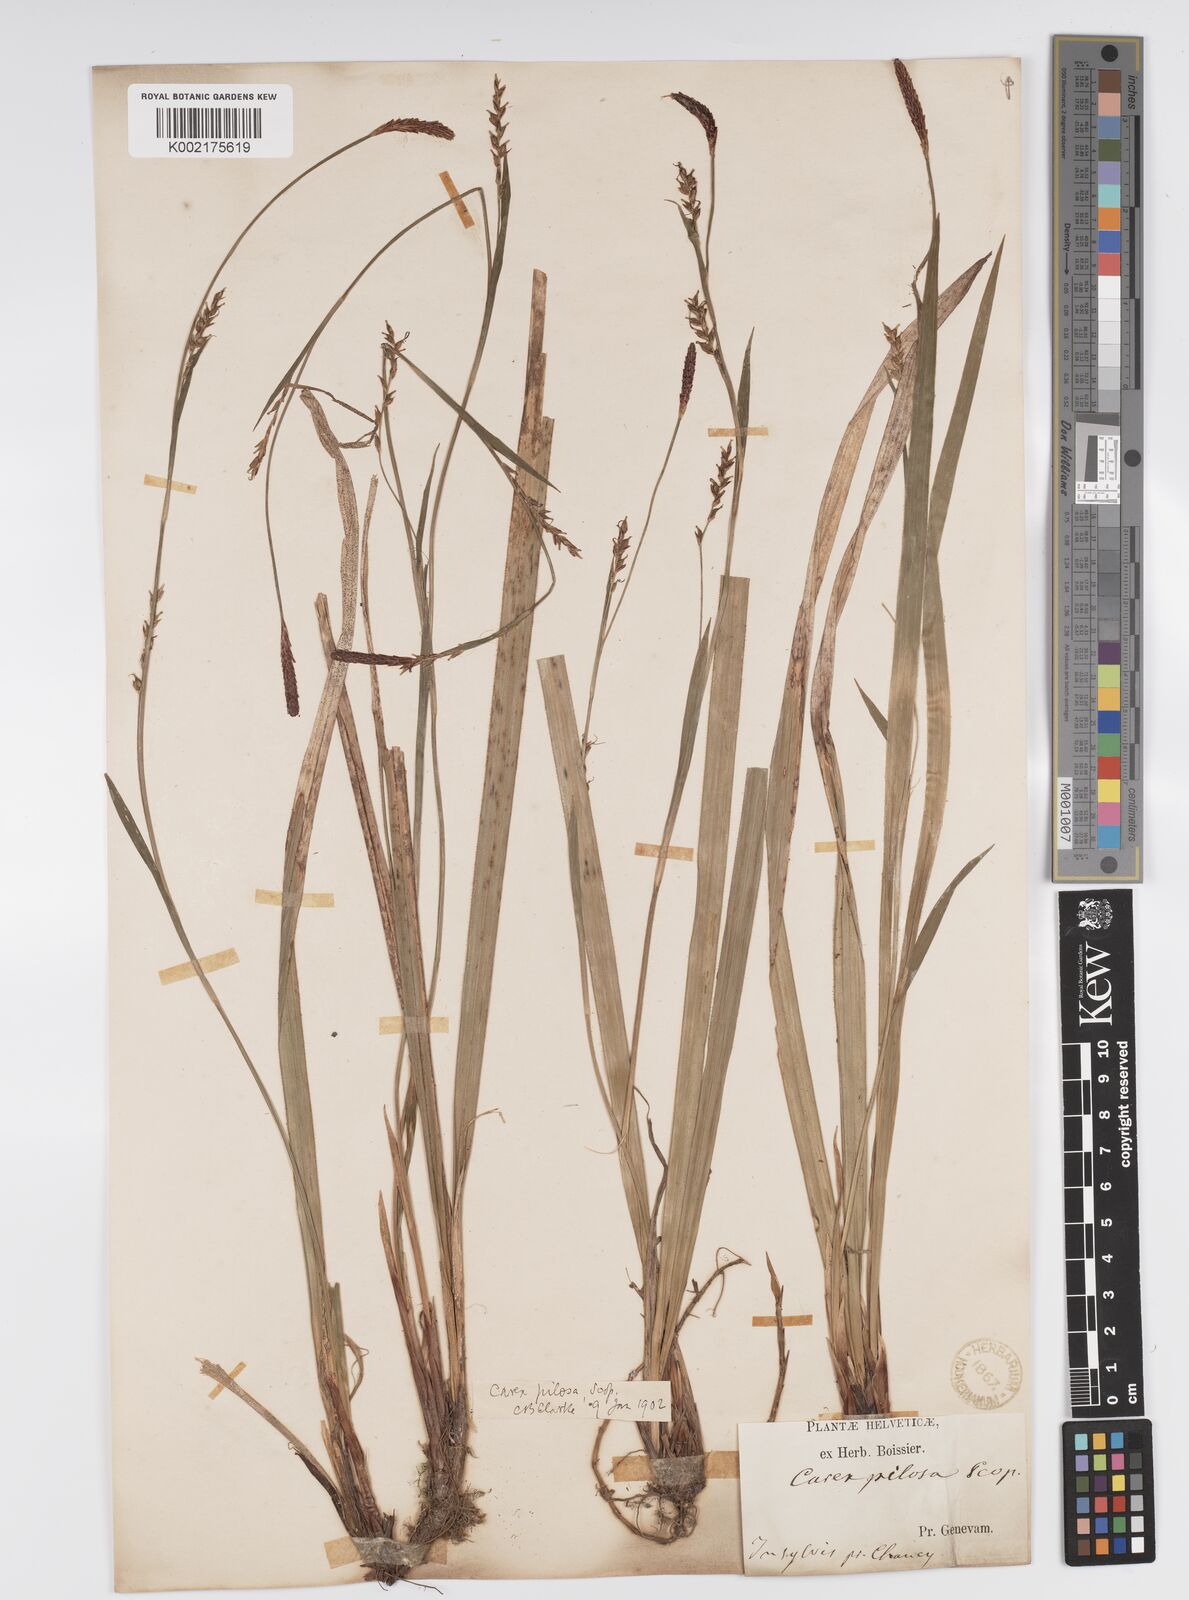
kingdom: Plantae
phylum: Tracheophyta
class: Liliopsida
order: Poales
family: Cyperaceae
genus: Carex
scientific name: Carex pilosa
